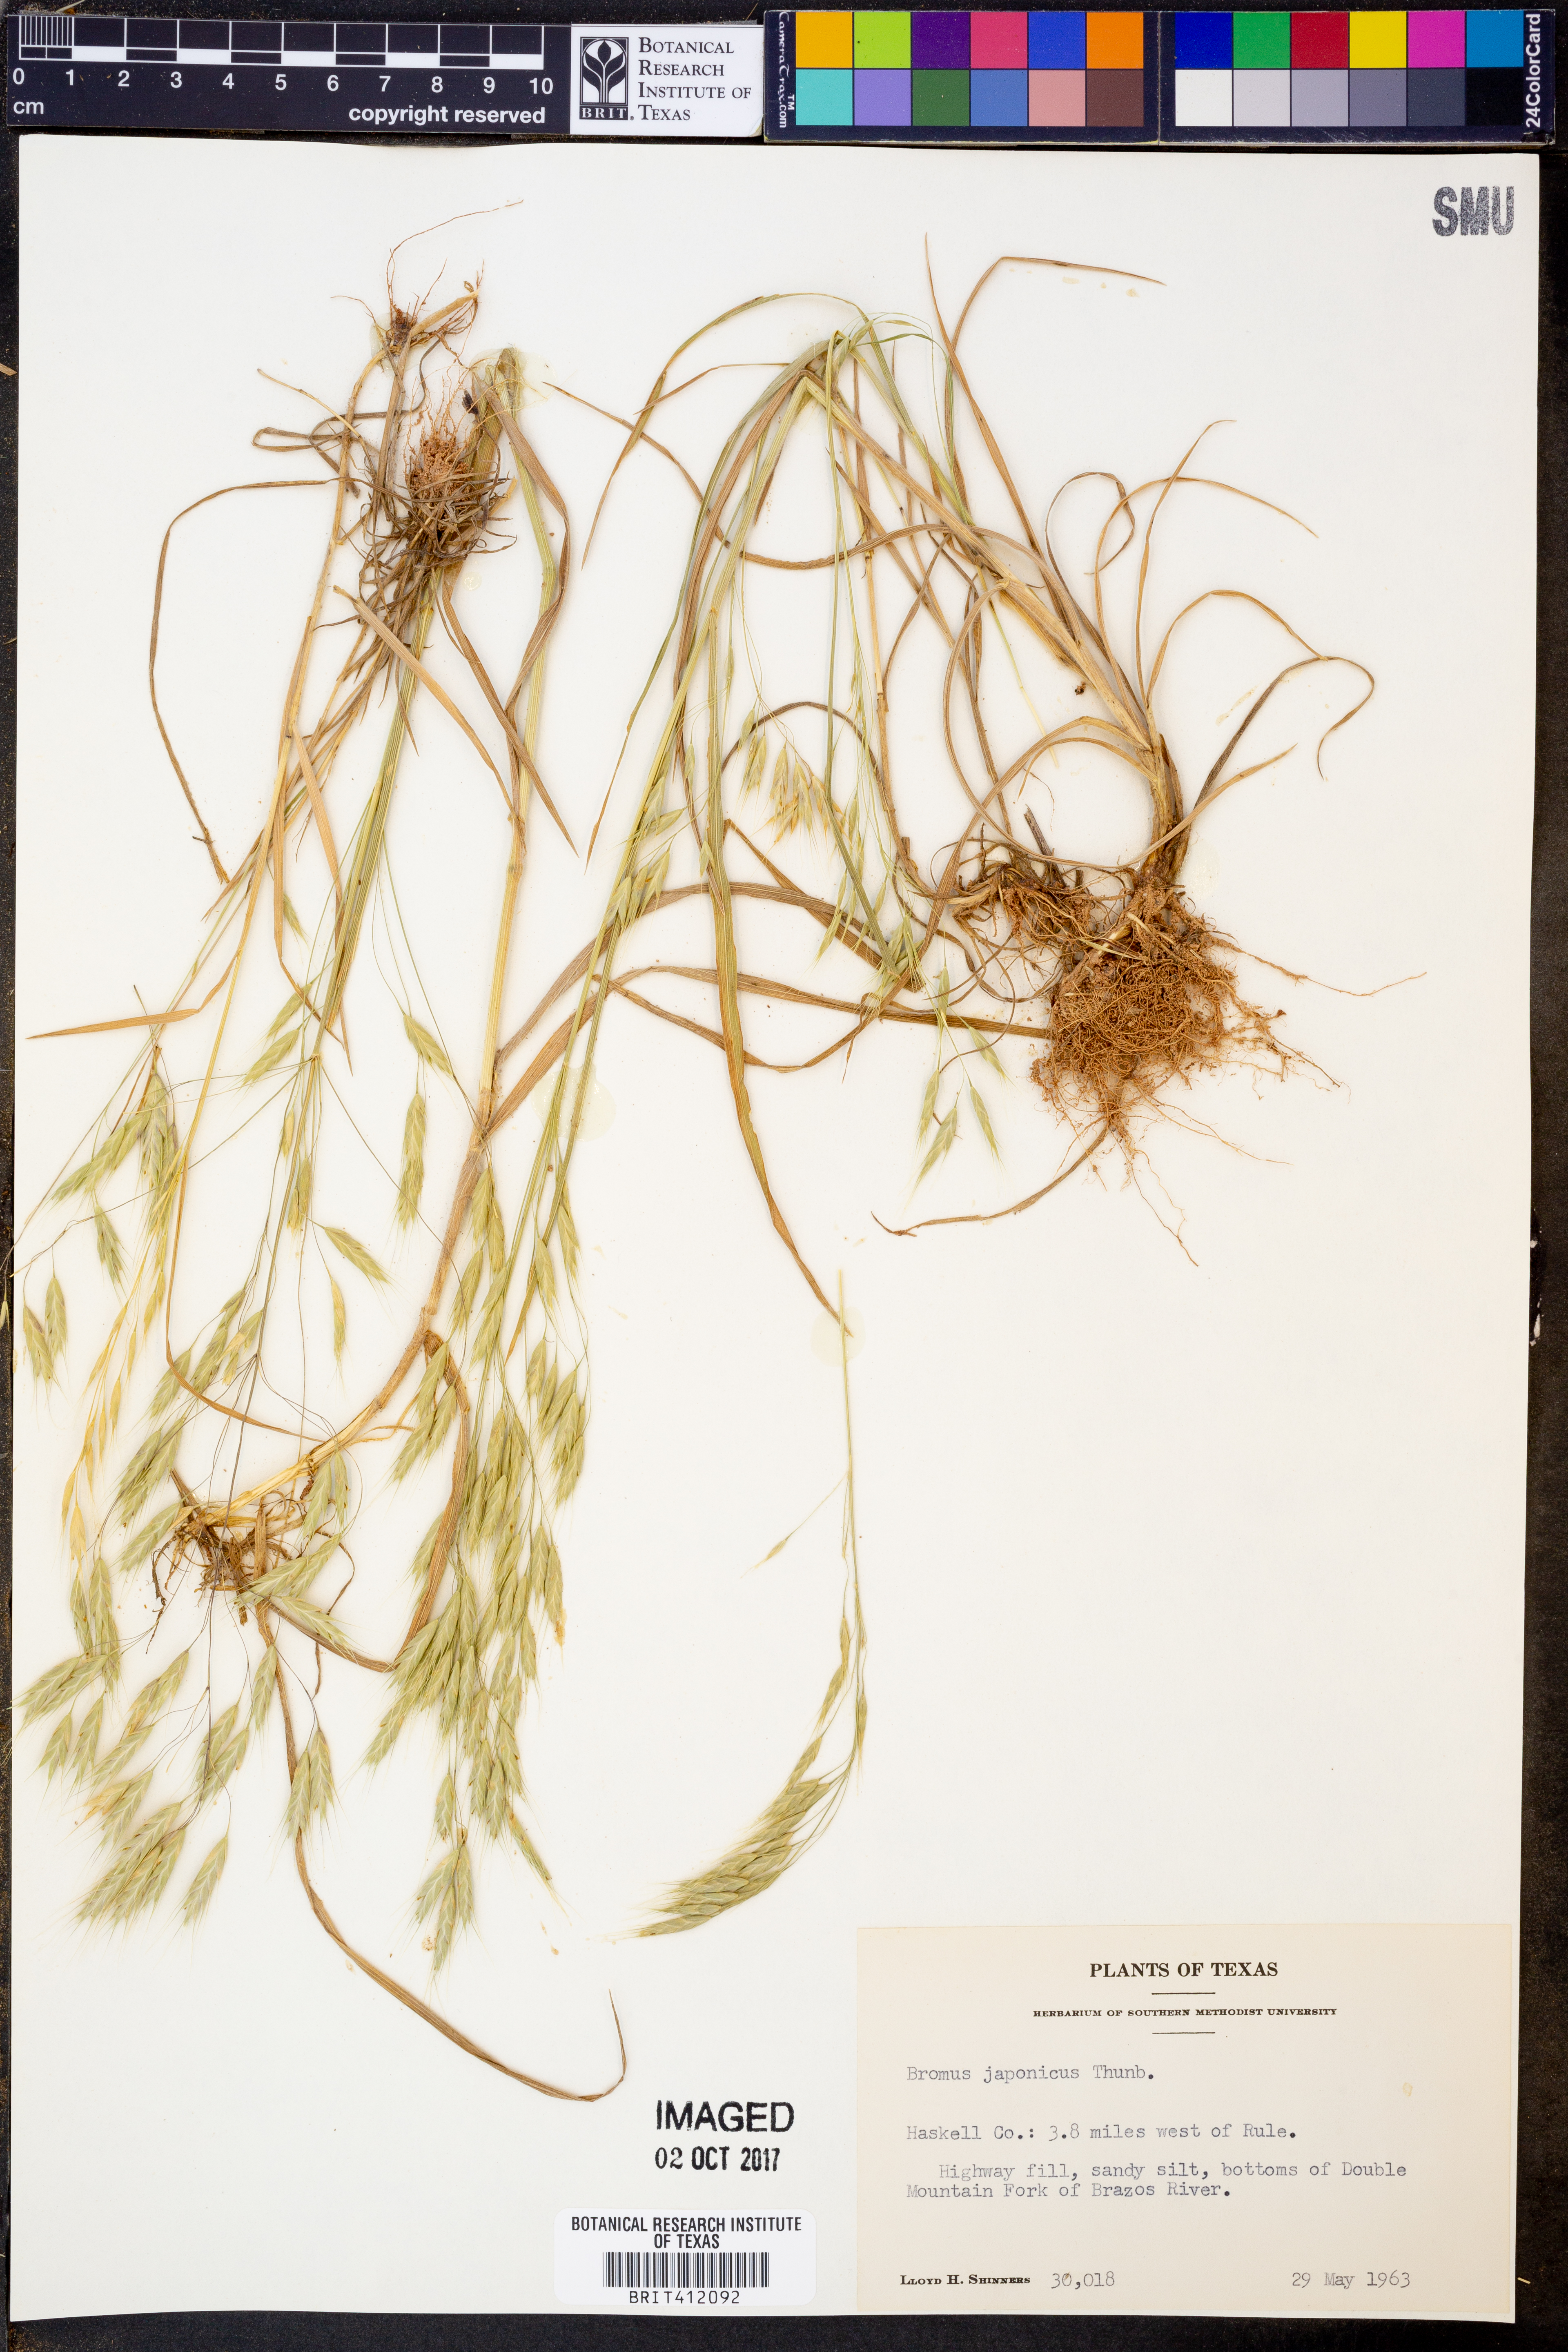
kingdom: Plantae
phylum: Tracheophyta
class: Liliopsida
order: Poales
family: Poaceae
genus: Bromus
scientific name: Bromus japonicus
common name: Japanese brome
